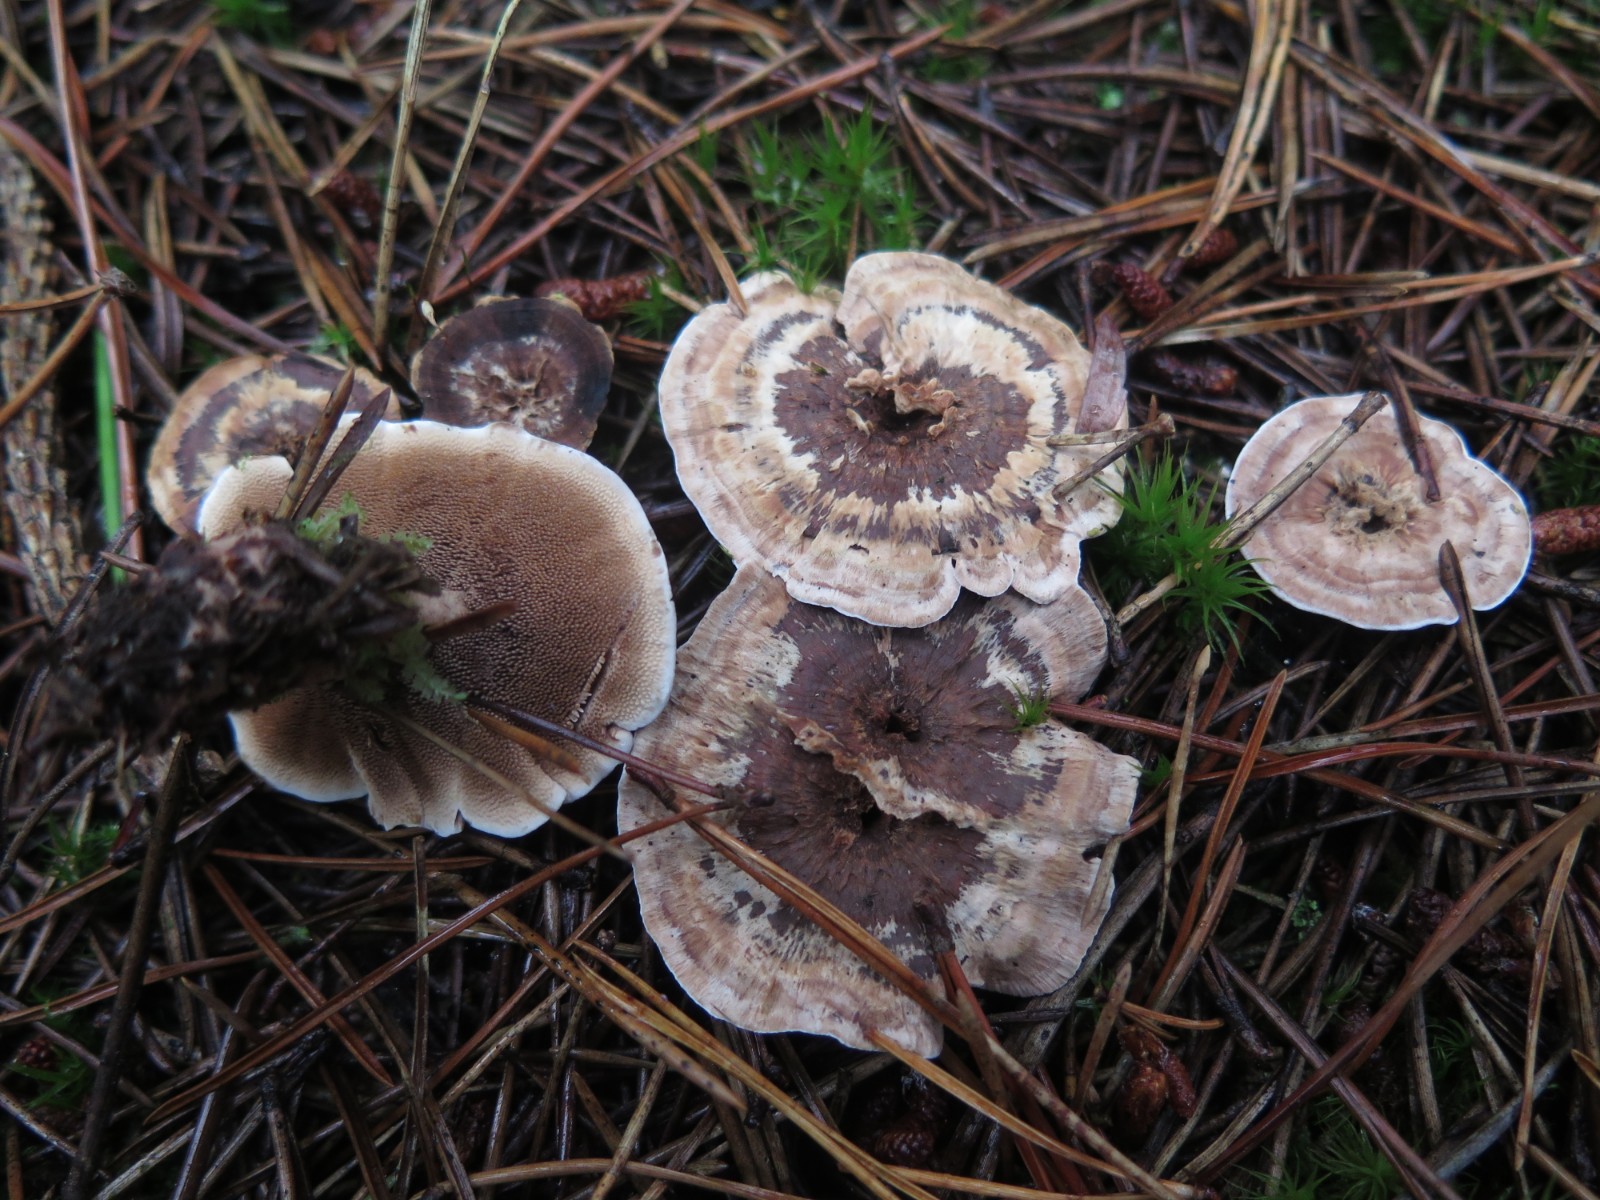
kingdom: Fungi
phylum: Basidiomycota
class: Agaricomycetes
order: Thelephorales
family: Bankeraceae
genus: Hydnellum
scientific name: Hydnellum
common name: korkpigsvamp
